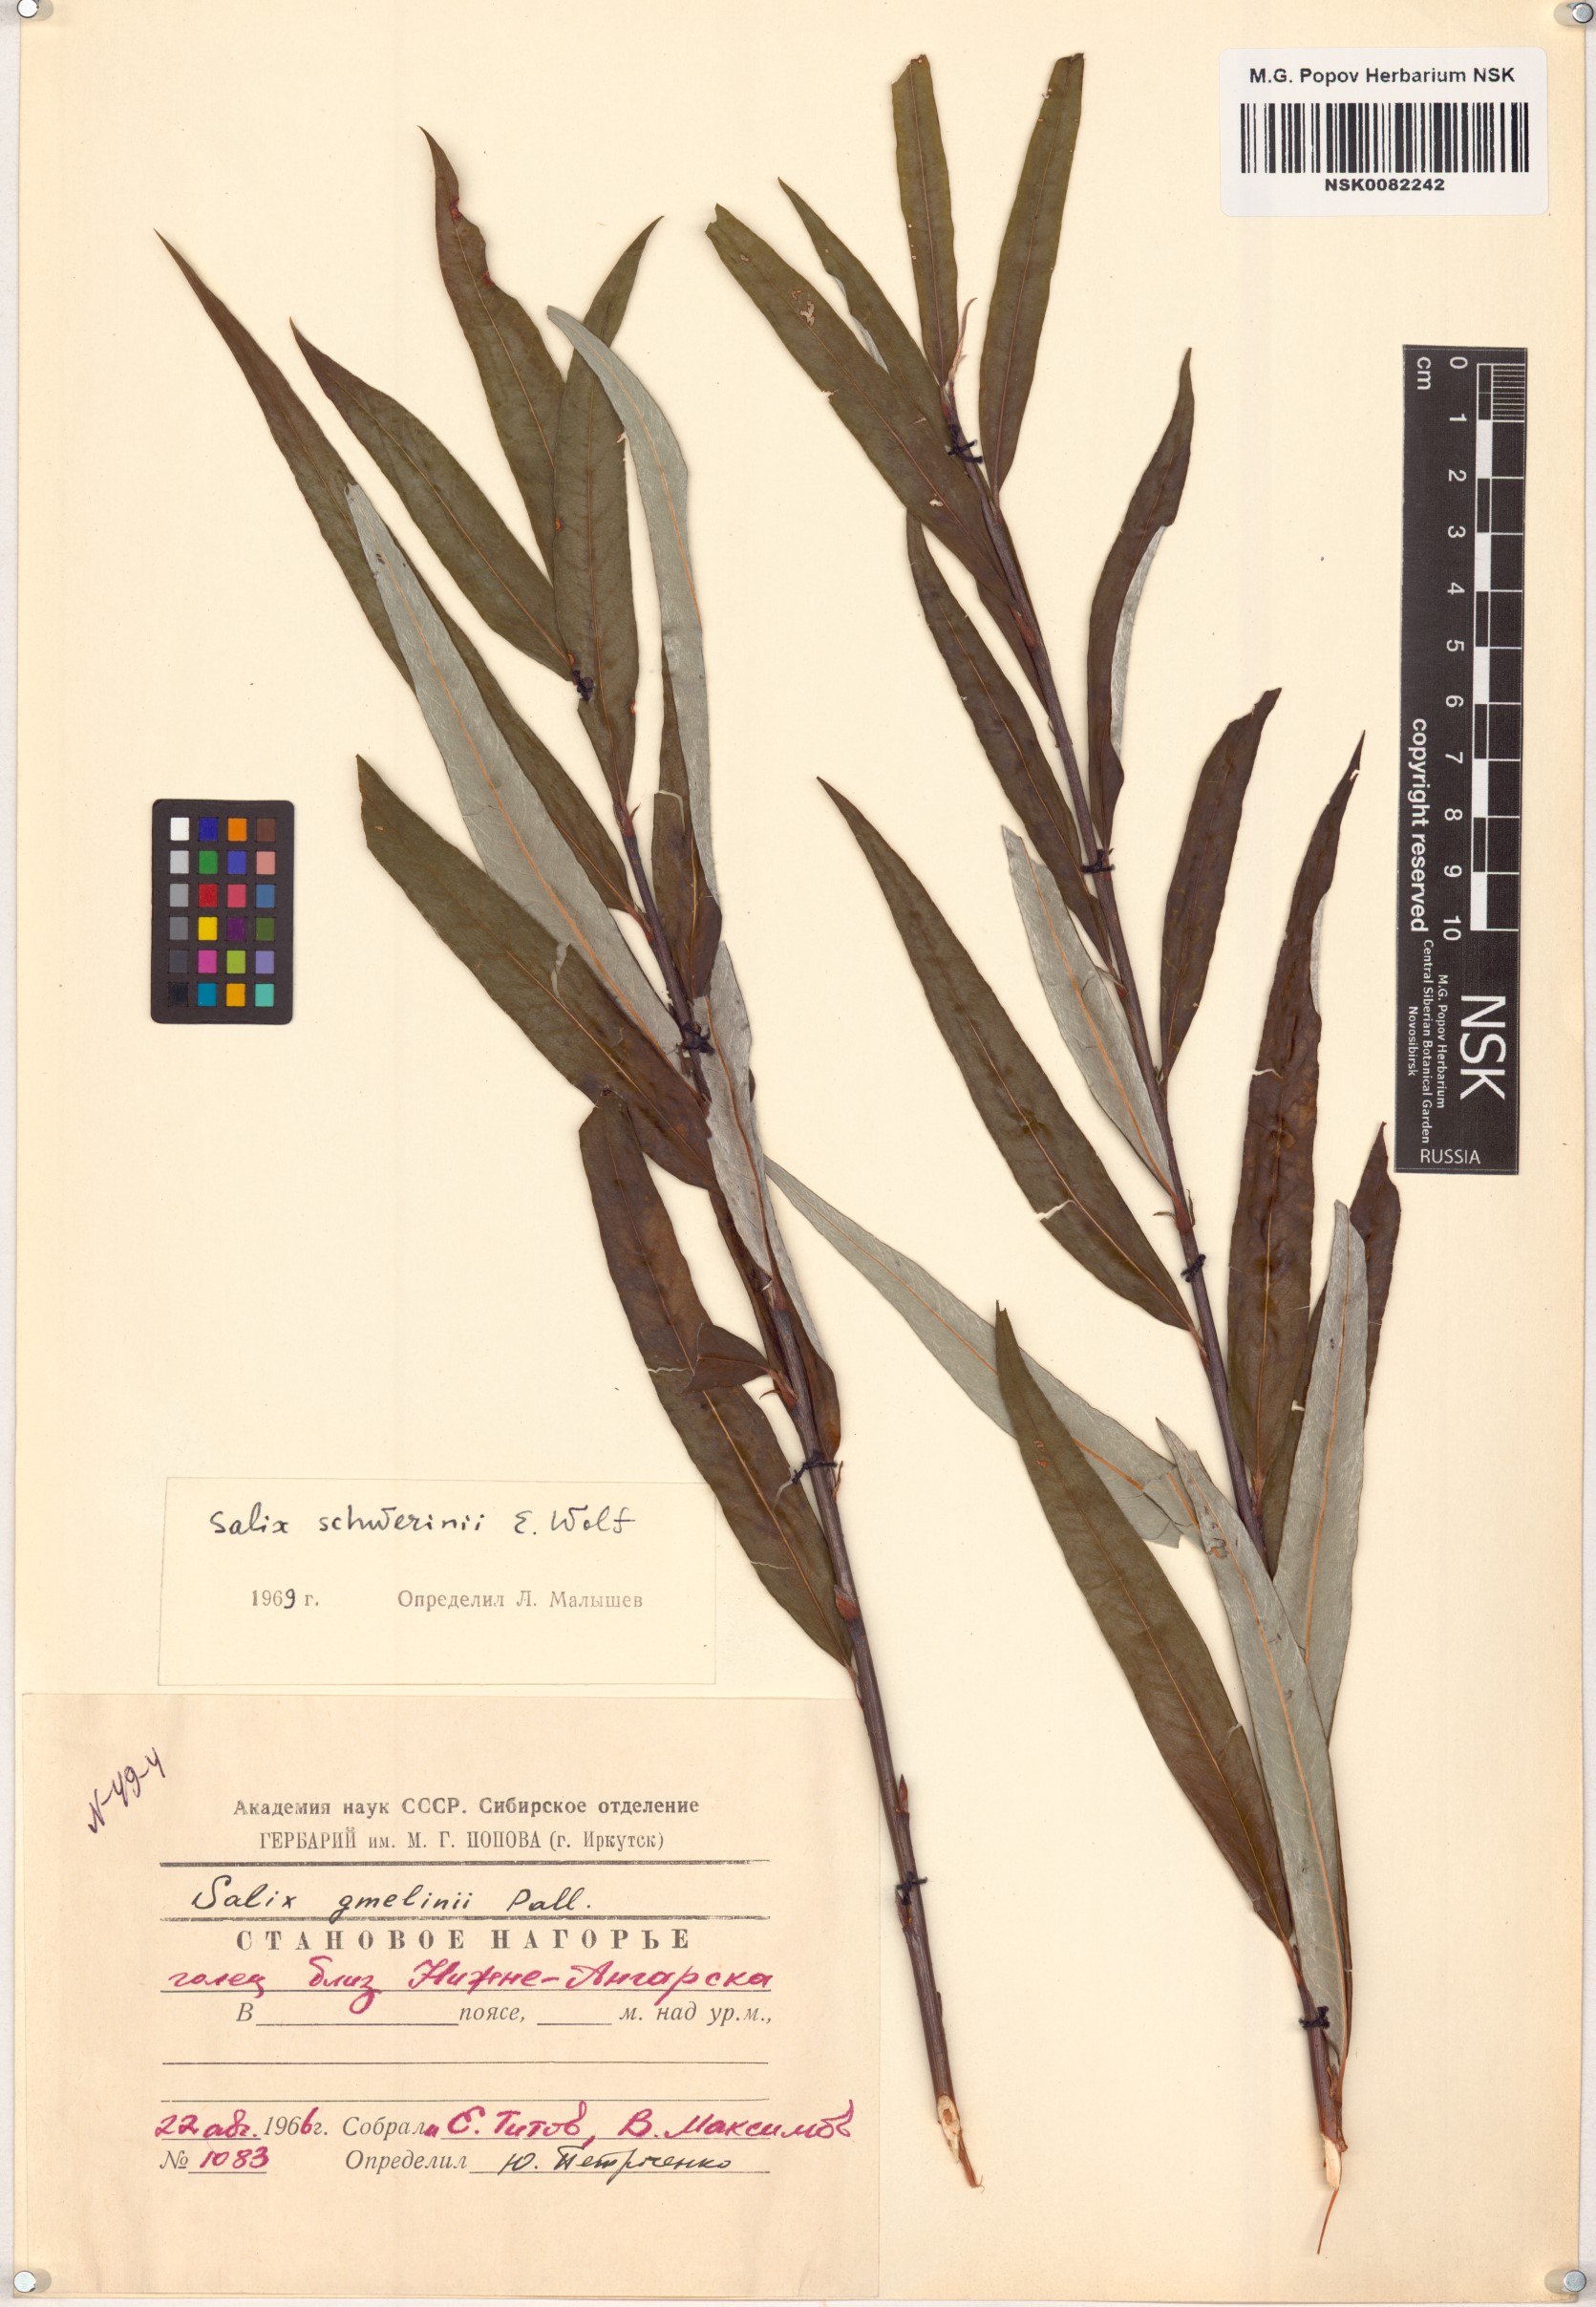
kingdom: Plantae
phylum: Tracheophyta
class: Magnoliopsida
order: Malpighiales
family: Salicaceae
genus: Salix
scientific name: Salix schwerinii
